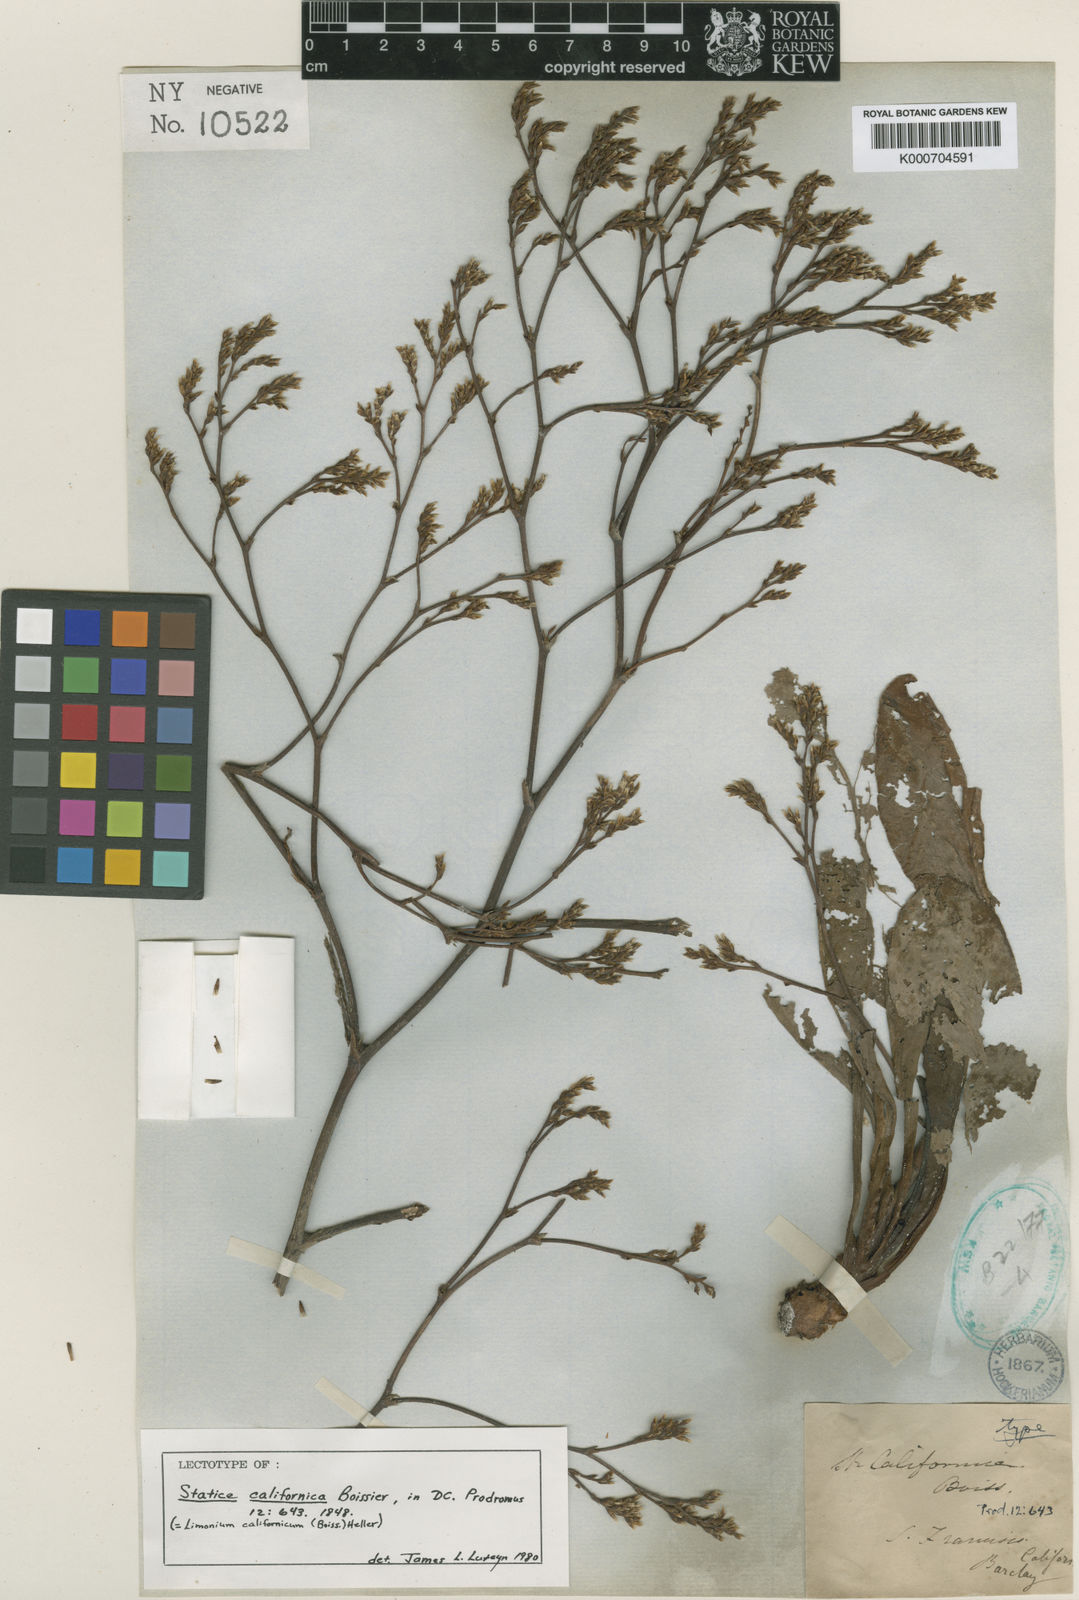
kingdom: Plantae
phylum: Tracheophyta
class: Magnoliopsida
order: Caryophyllales
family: Plumbaginaceae
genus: Limonium
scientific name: Limonium californicum
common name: Marsh-rosemary
